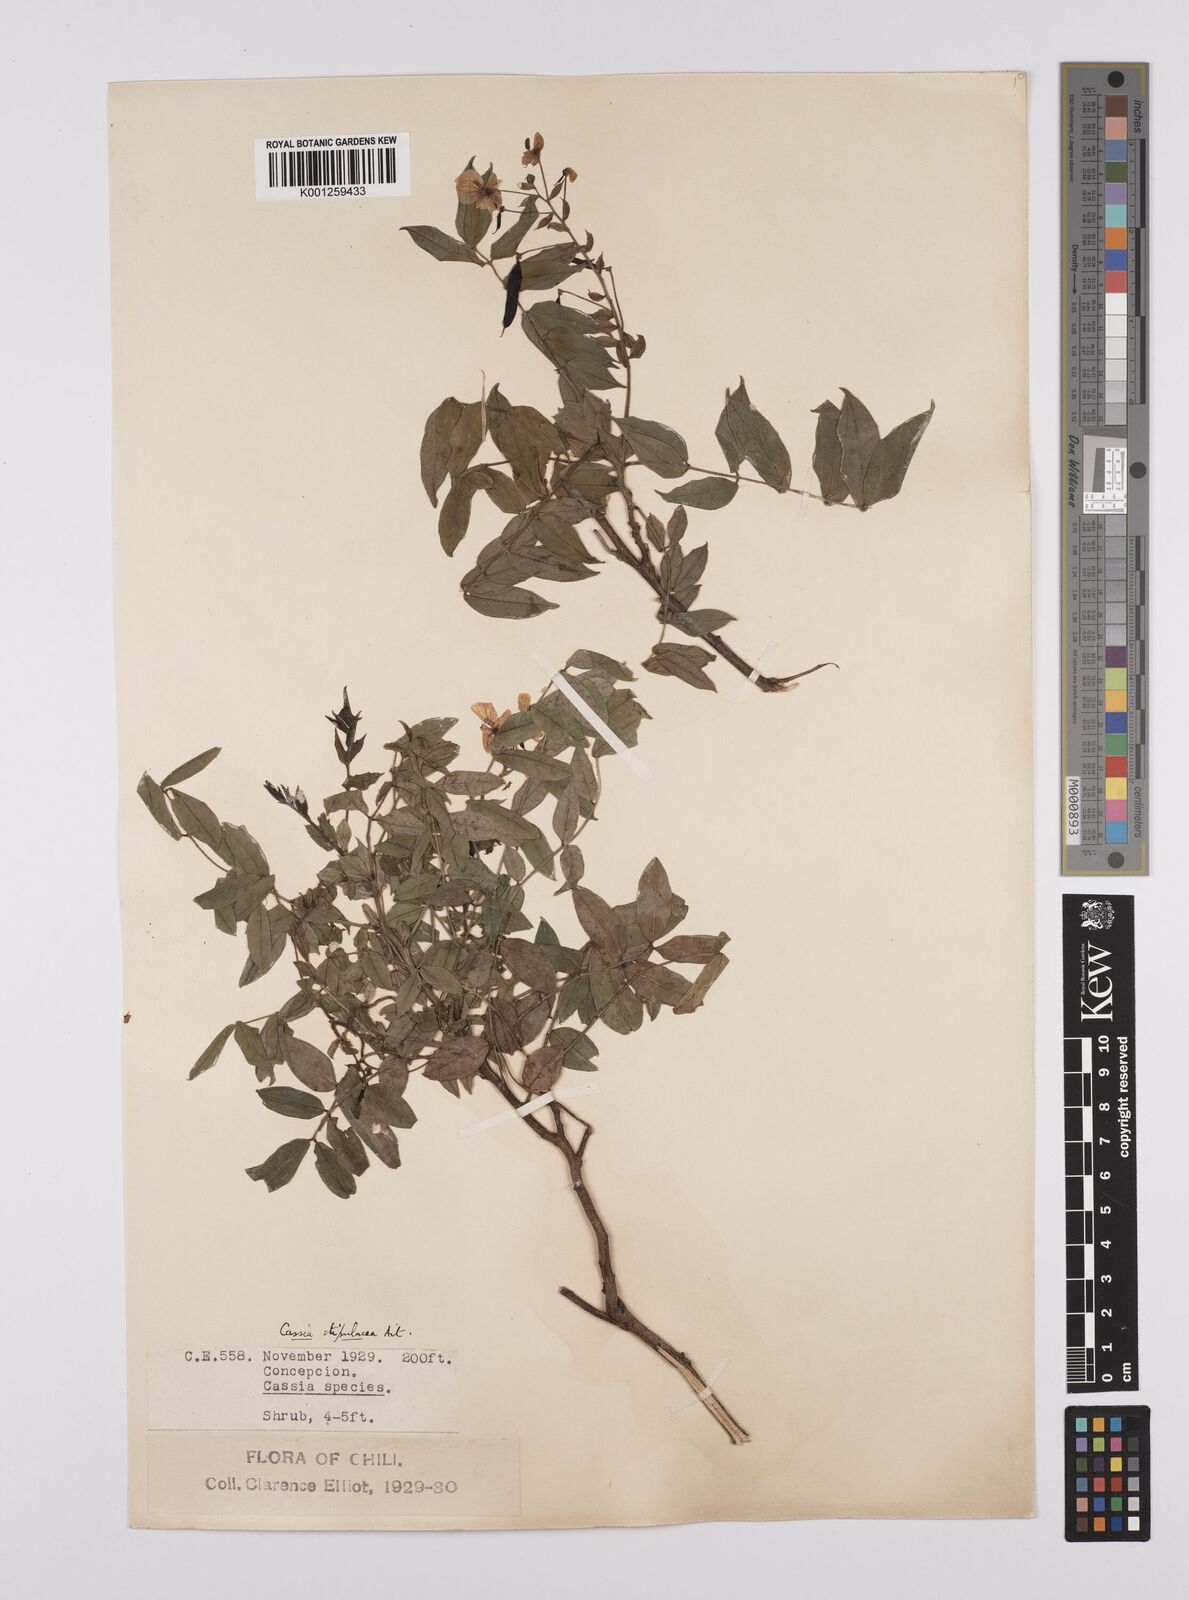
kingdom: Plantae
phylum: Tracheophyta
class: Magnoliopsida
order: Fabales
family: Fabaceae
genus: Senna
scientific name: Senna stipulacea
